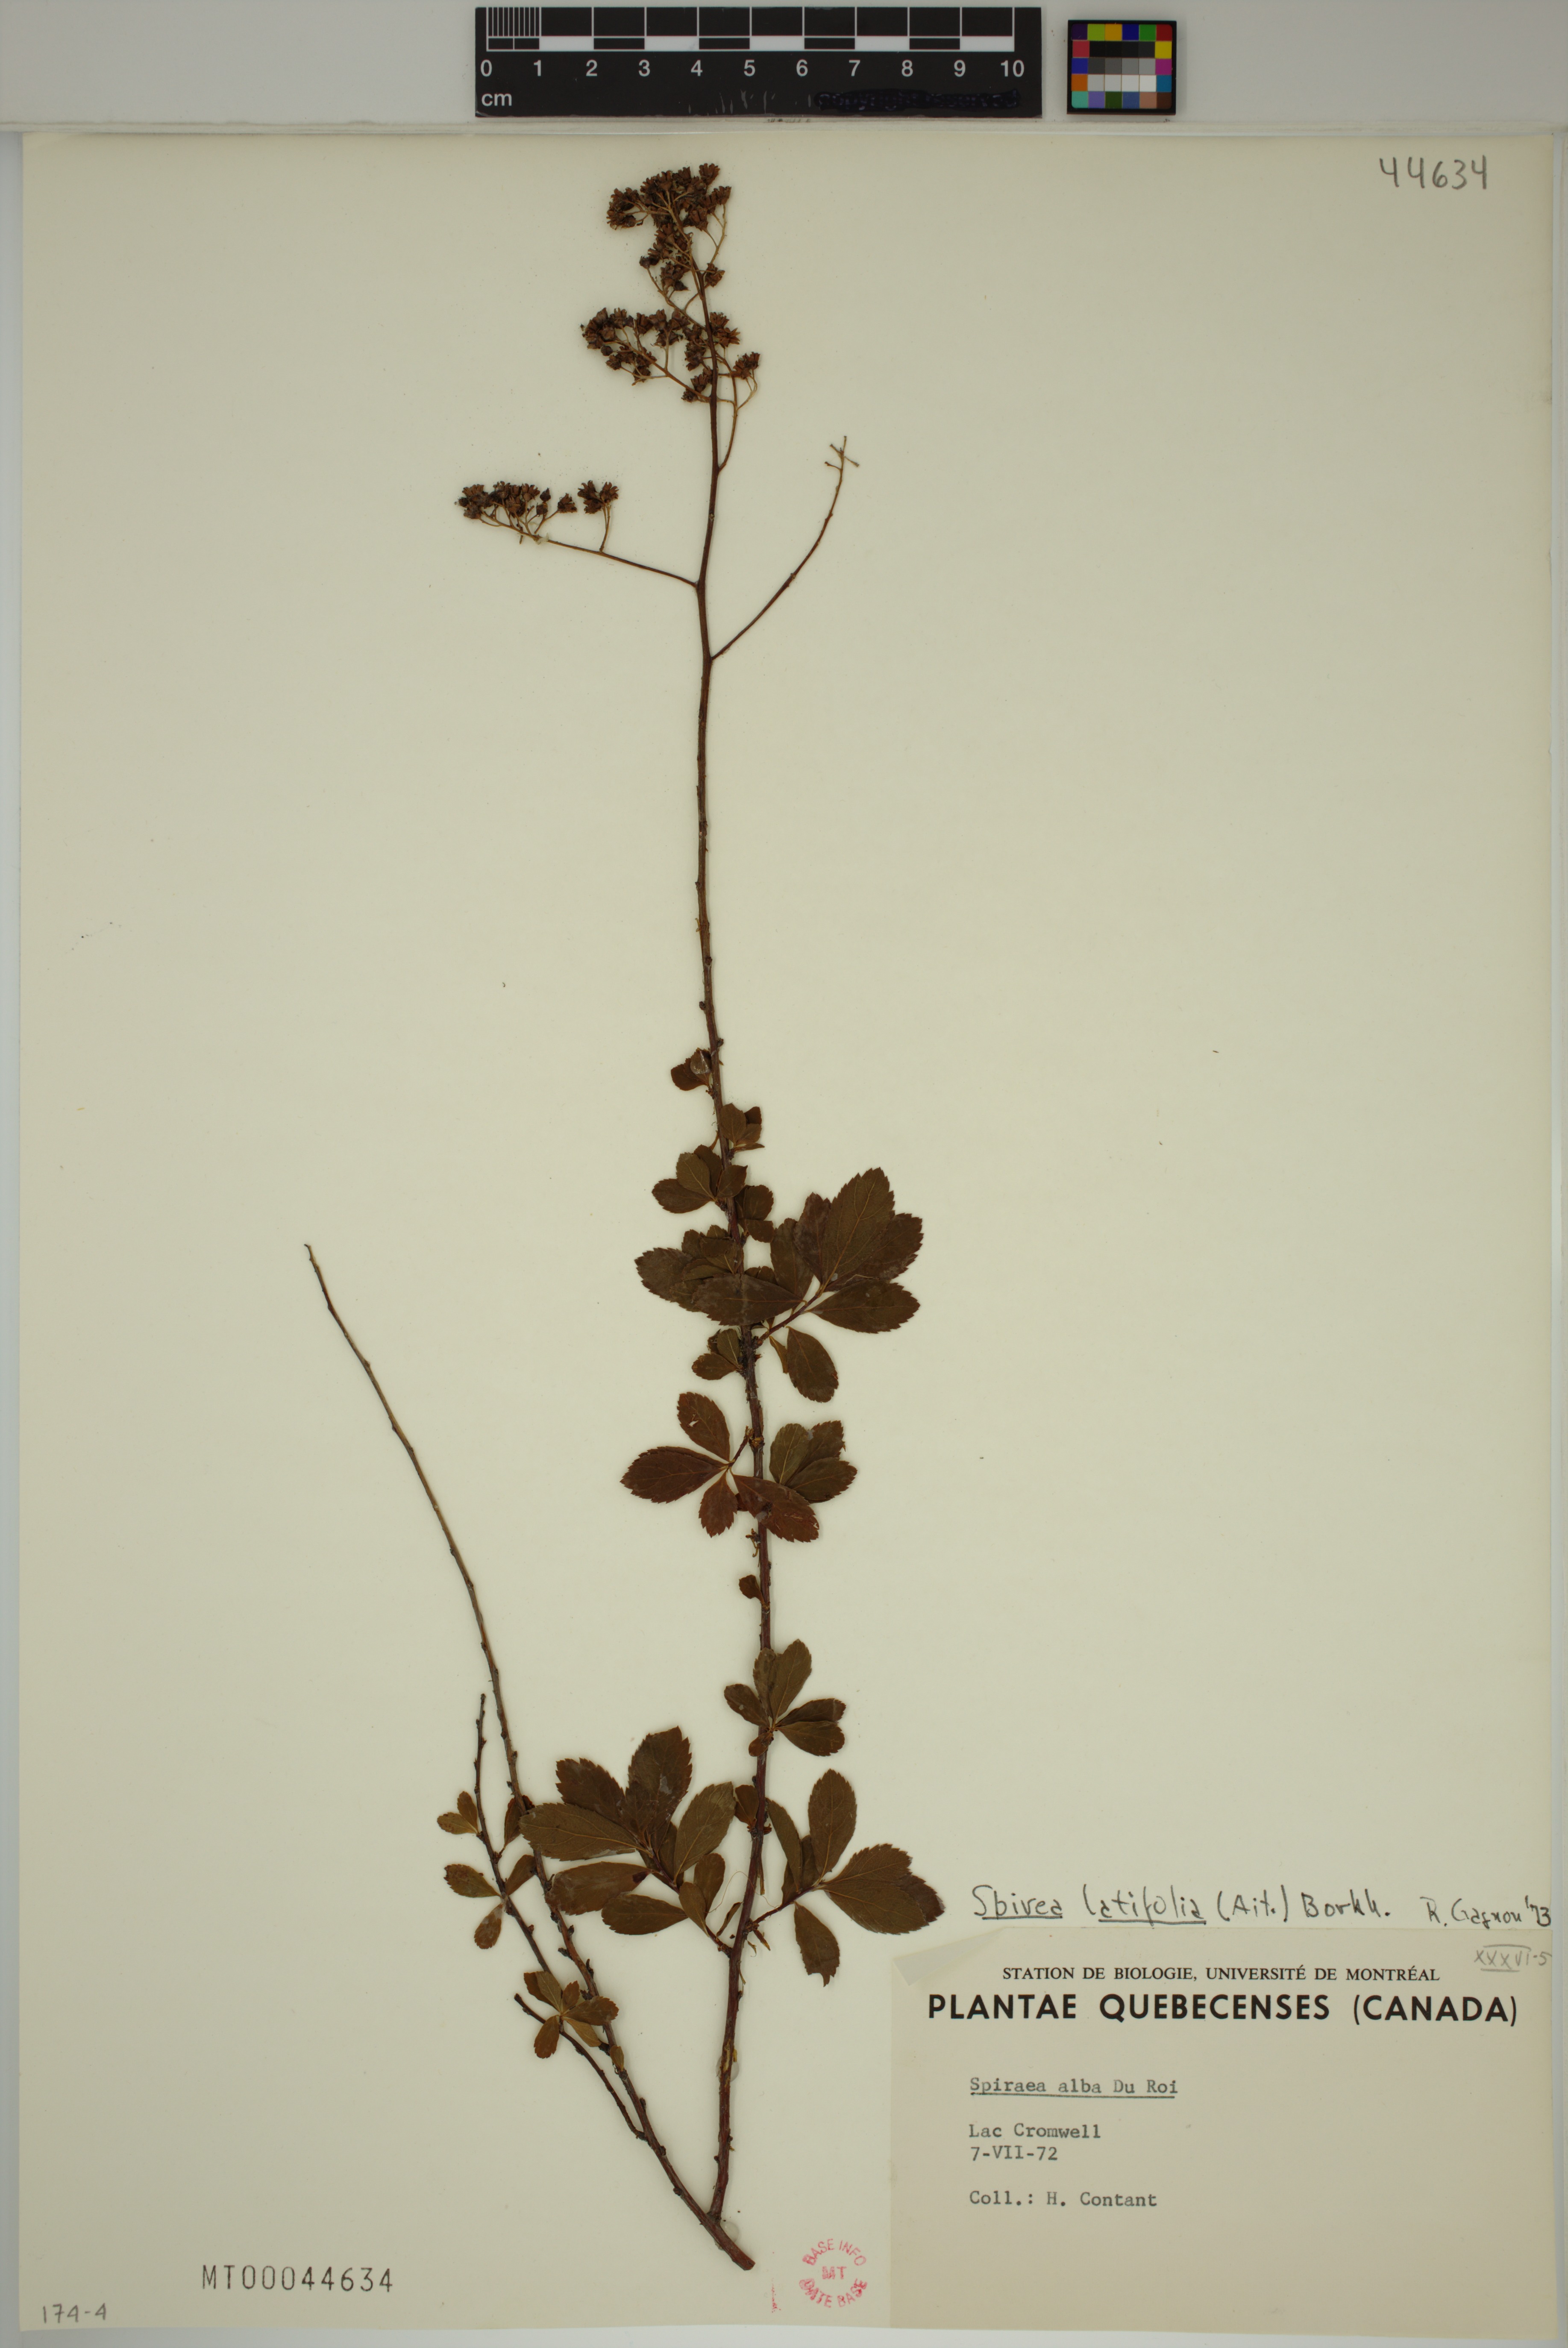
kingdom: Plantae
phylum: Tracheophyta
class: Magnoliopsida
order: Rosales
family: Rosaceae
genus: Spiraea
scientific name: Spiraea alba
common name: Pale bridewort
